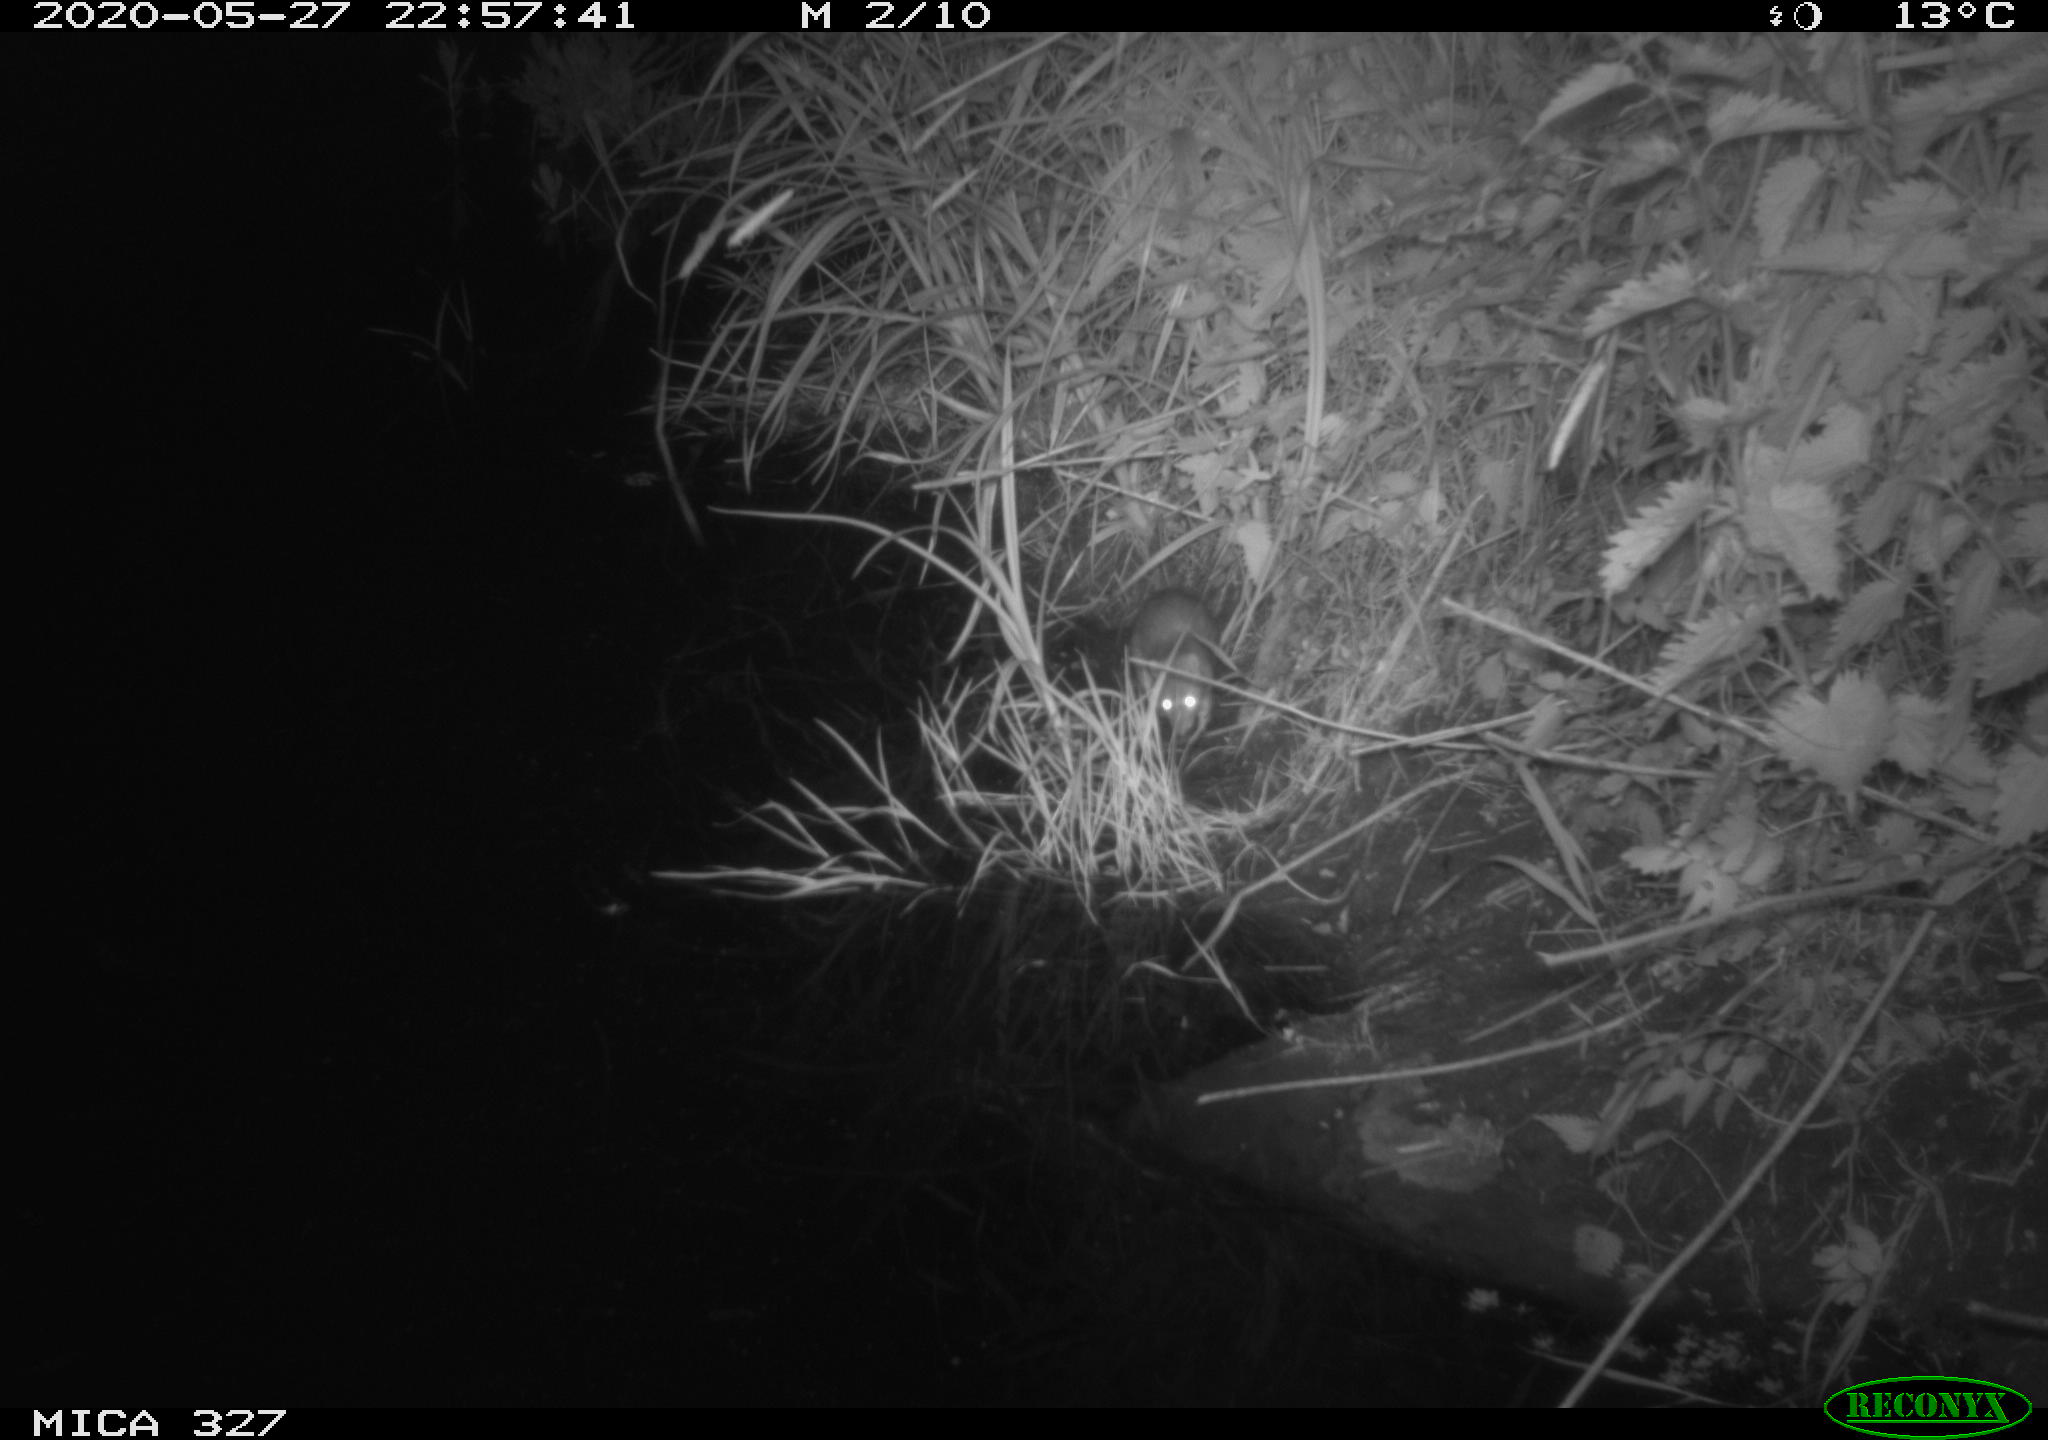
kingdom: Animalia
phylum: Chordata
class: Mammalia
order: Rodentia
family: Muridae
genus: Rattus
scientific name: Rattus norvegicus
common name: Brown rat
